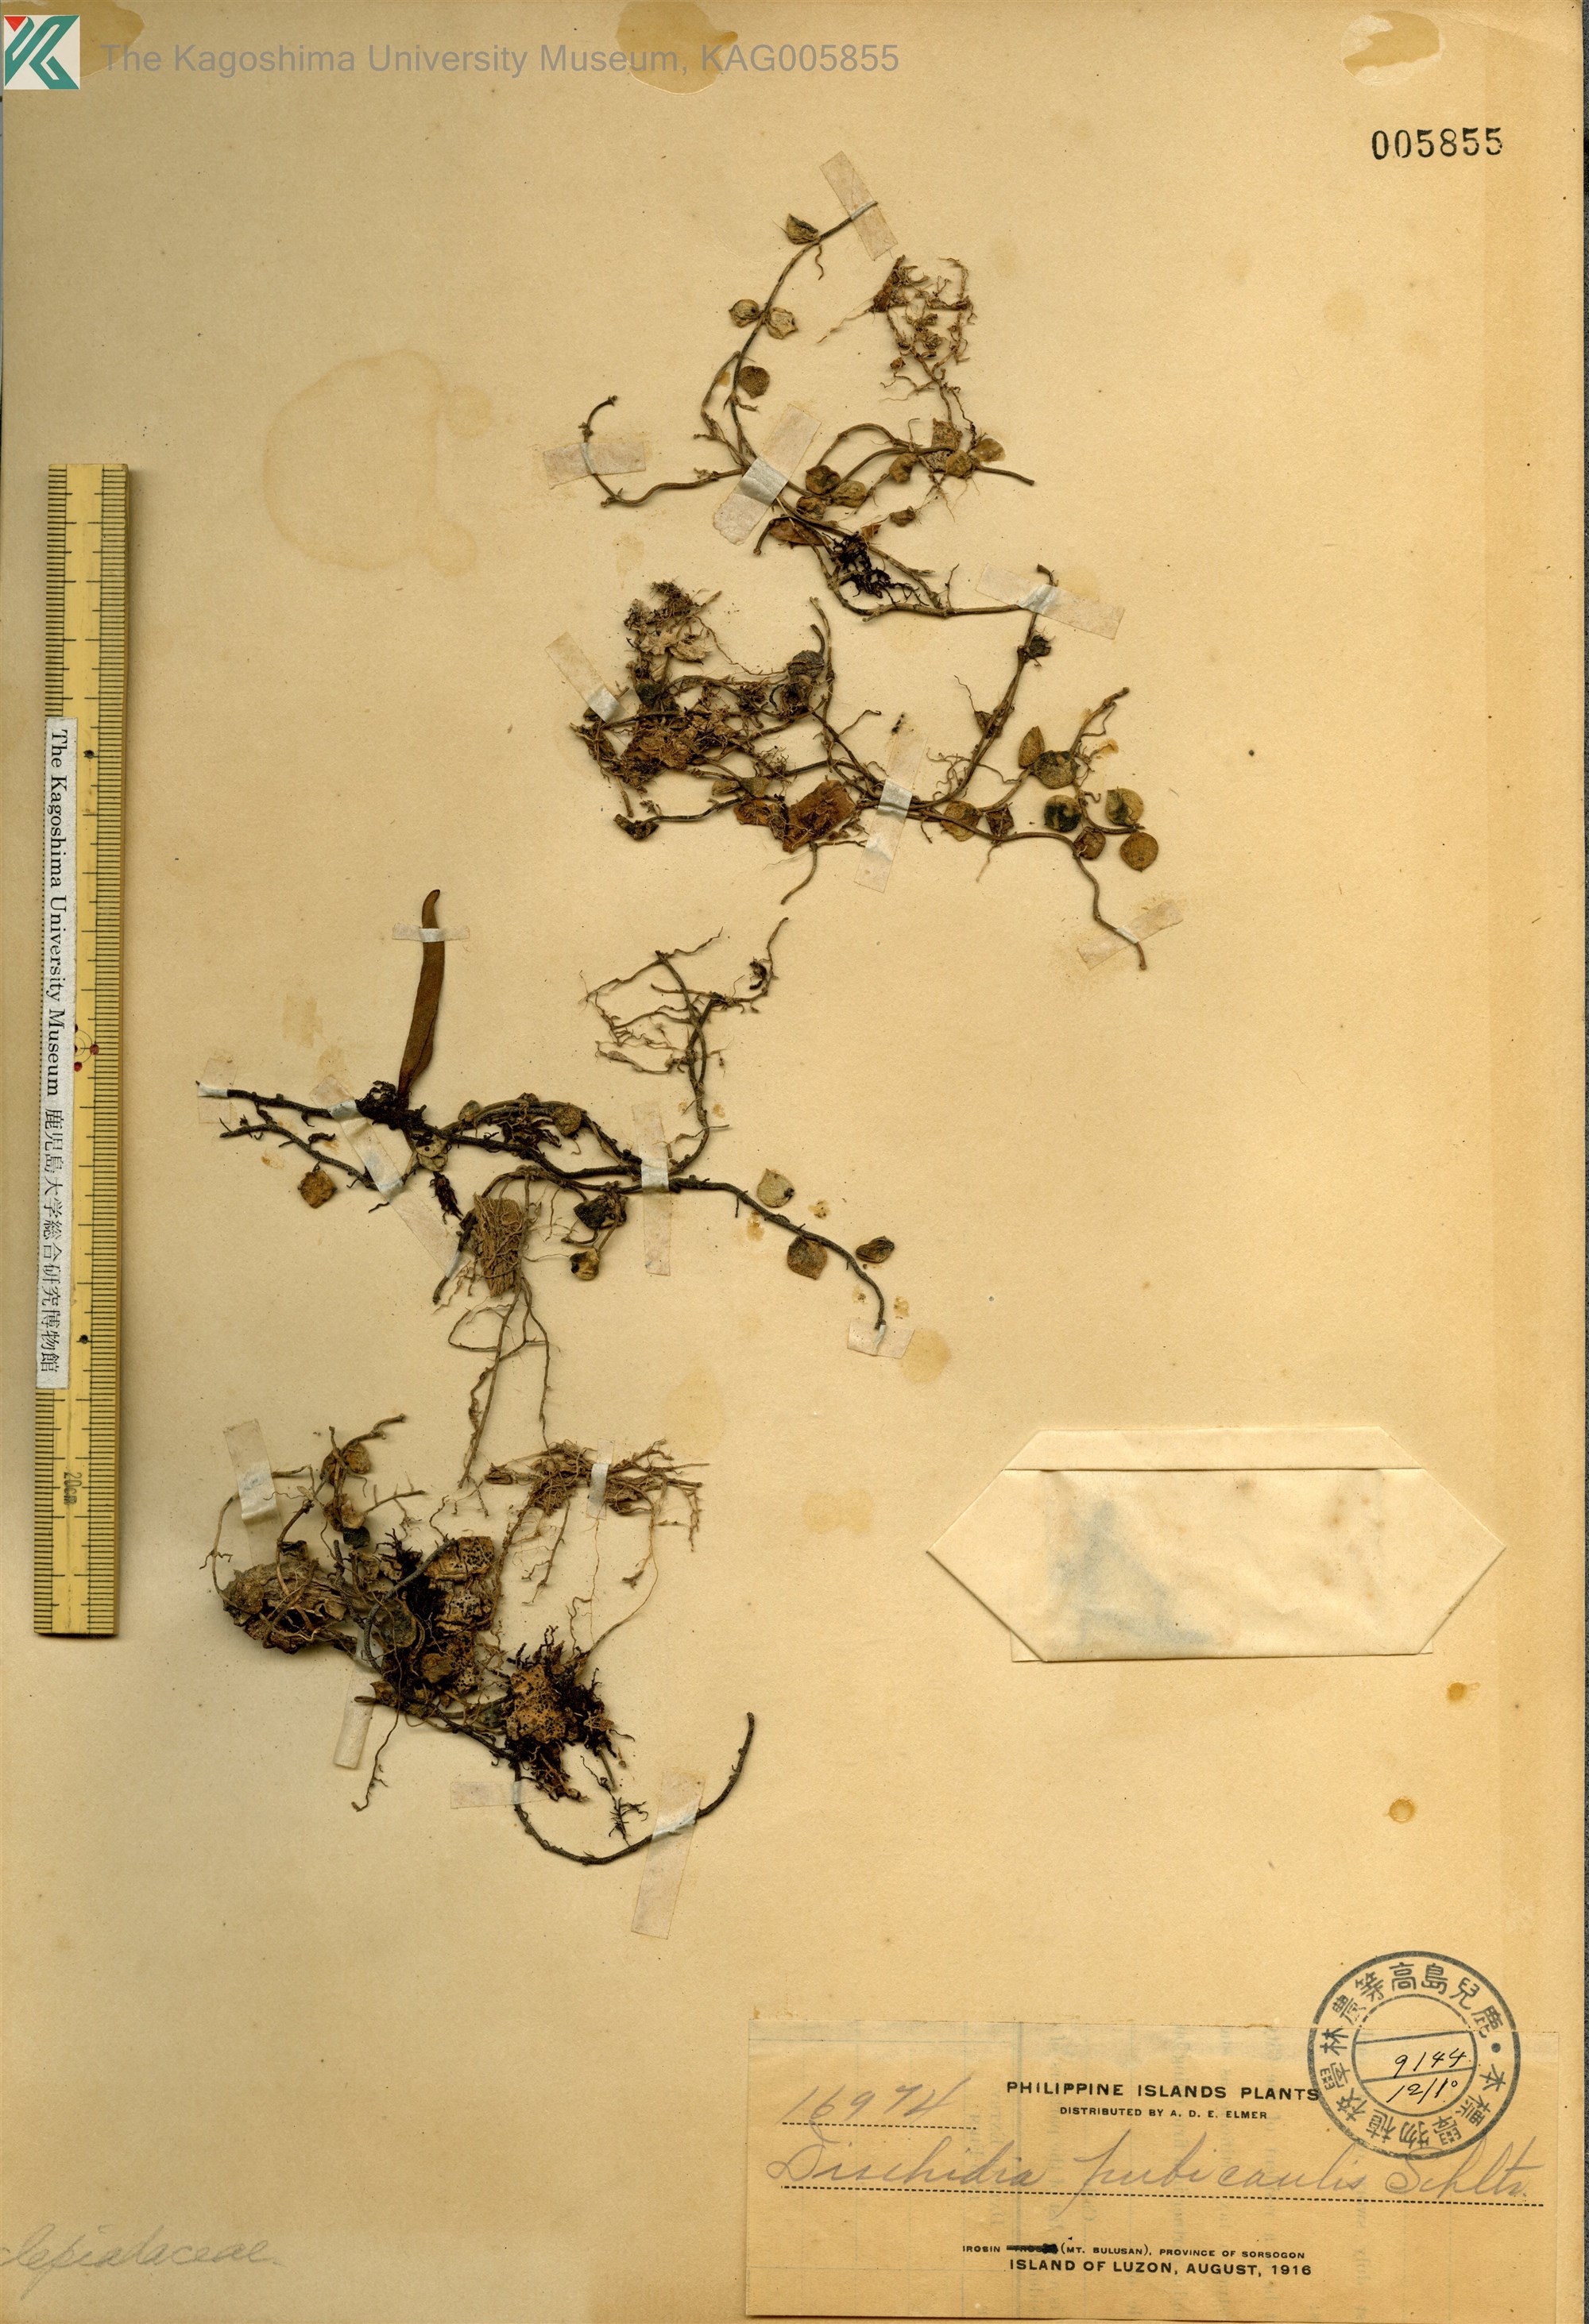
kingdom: Plantae
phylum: Tracheophyta
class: Magnoliopsida
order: Gentianales
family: Apocynaceae
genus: Dischidia
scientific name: Dischidia nummularia
